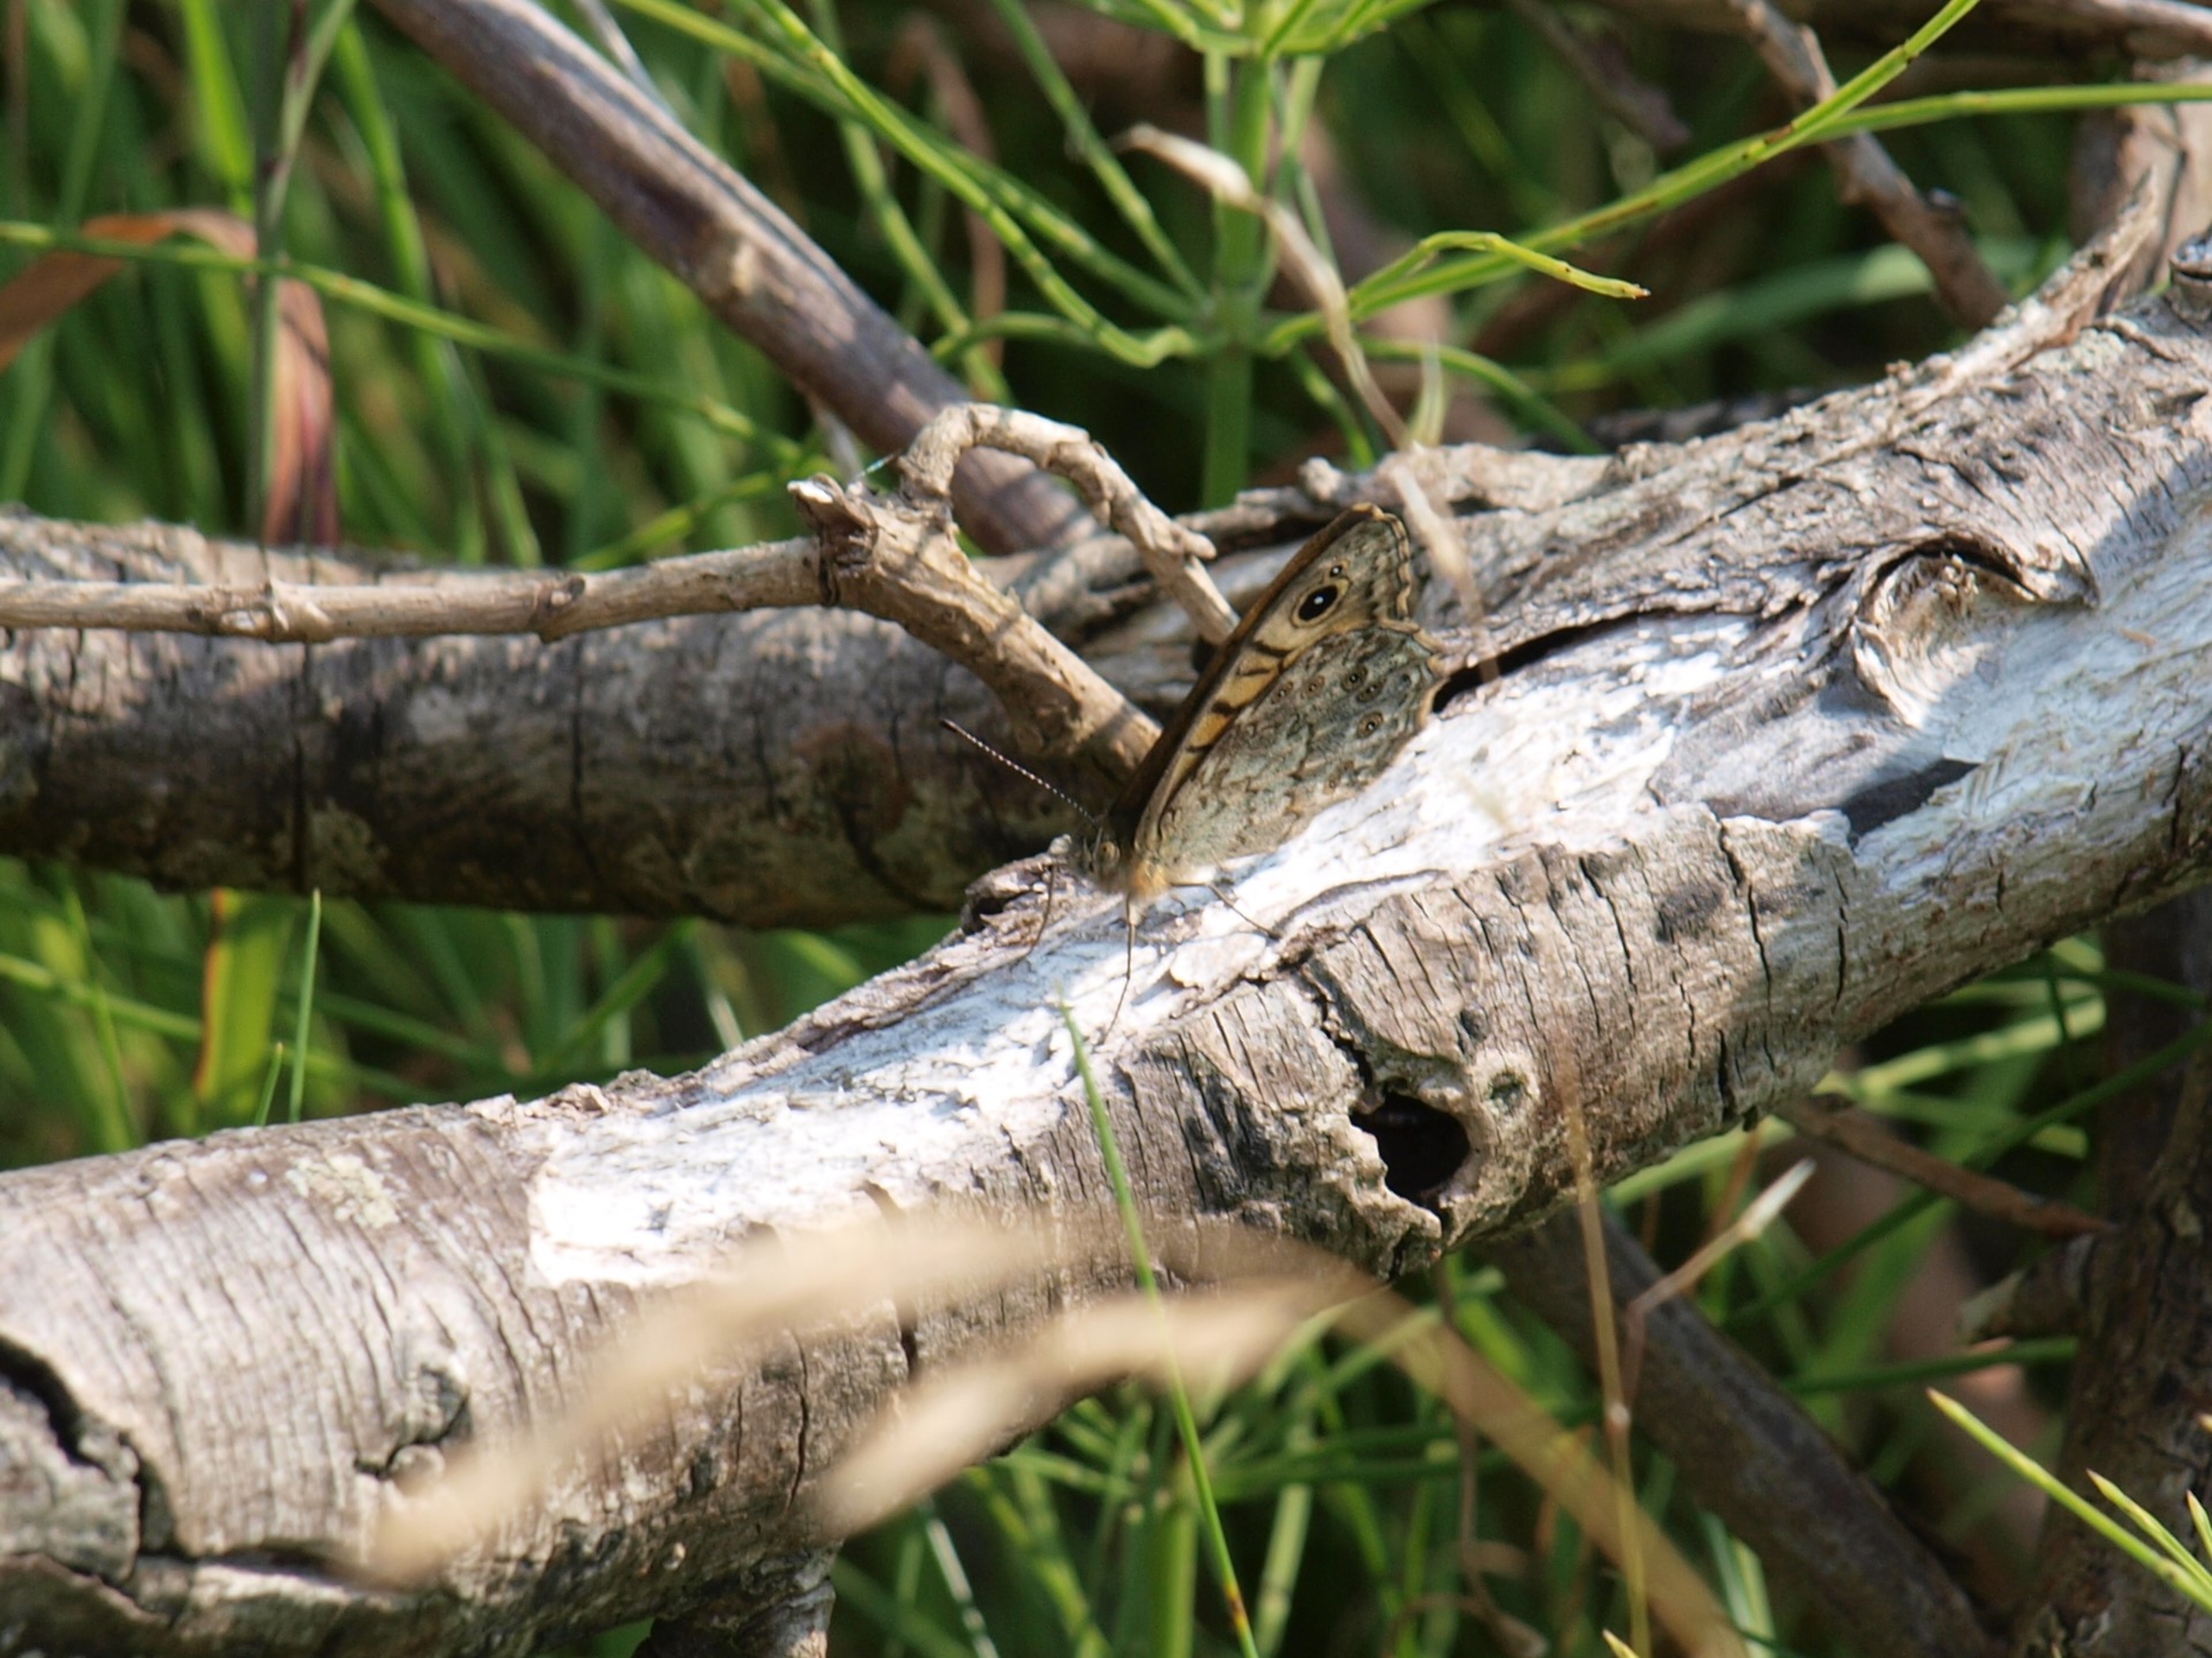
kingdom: Animalia
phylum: Arthropoda
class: Insecta
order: Lepidoptera
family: Nymphalidae
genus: Pararge
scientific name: Pararge Lasiommata megera
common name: Vejrandøje
